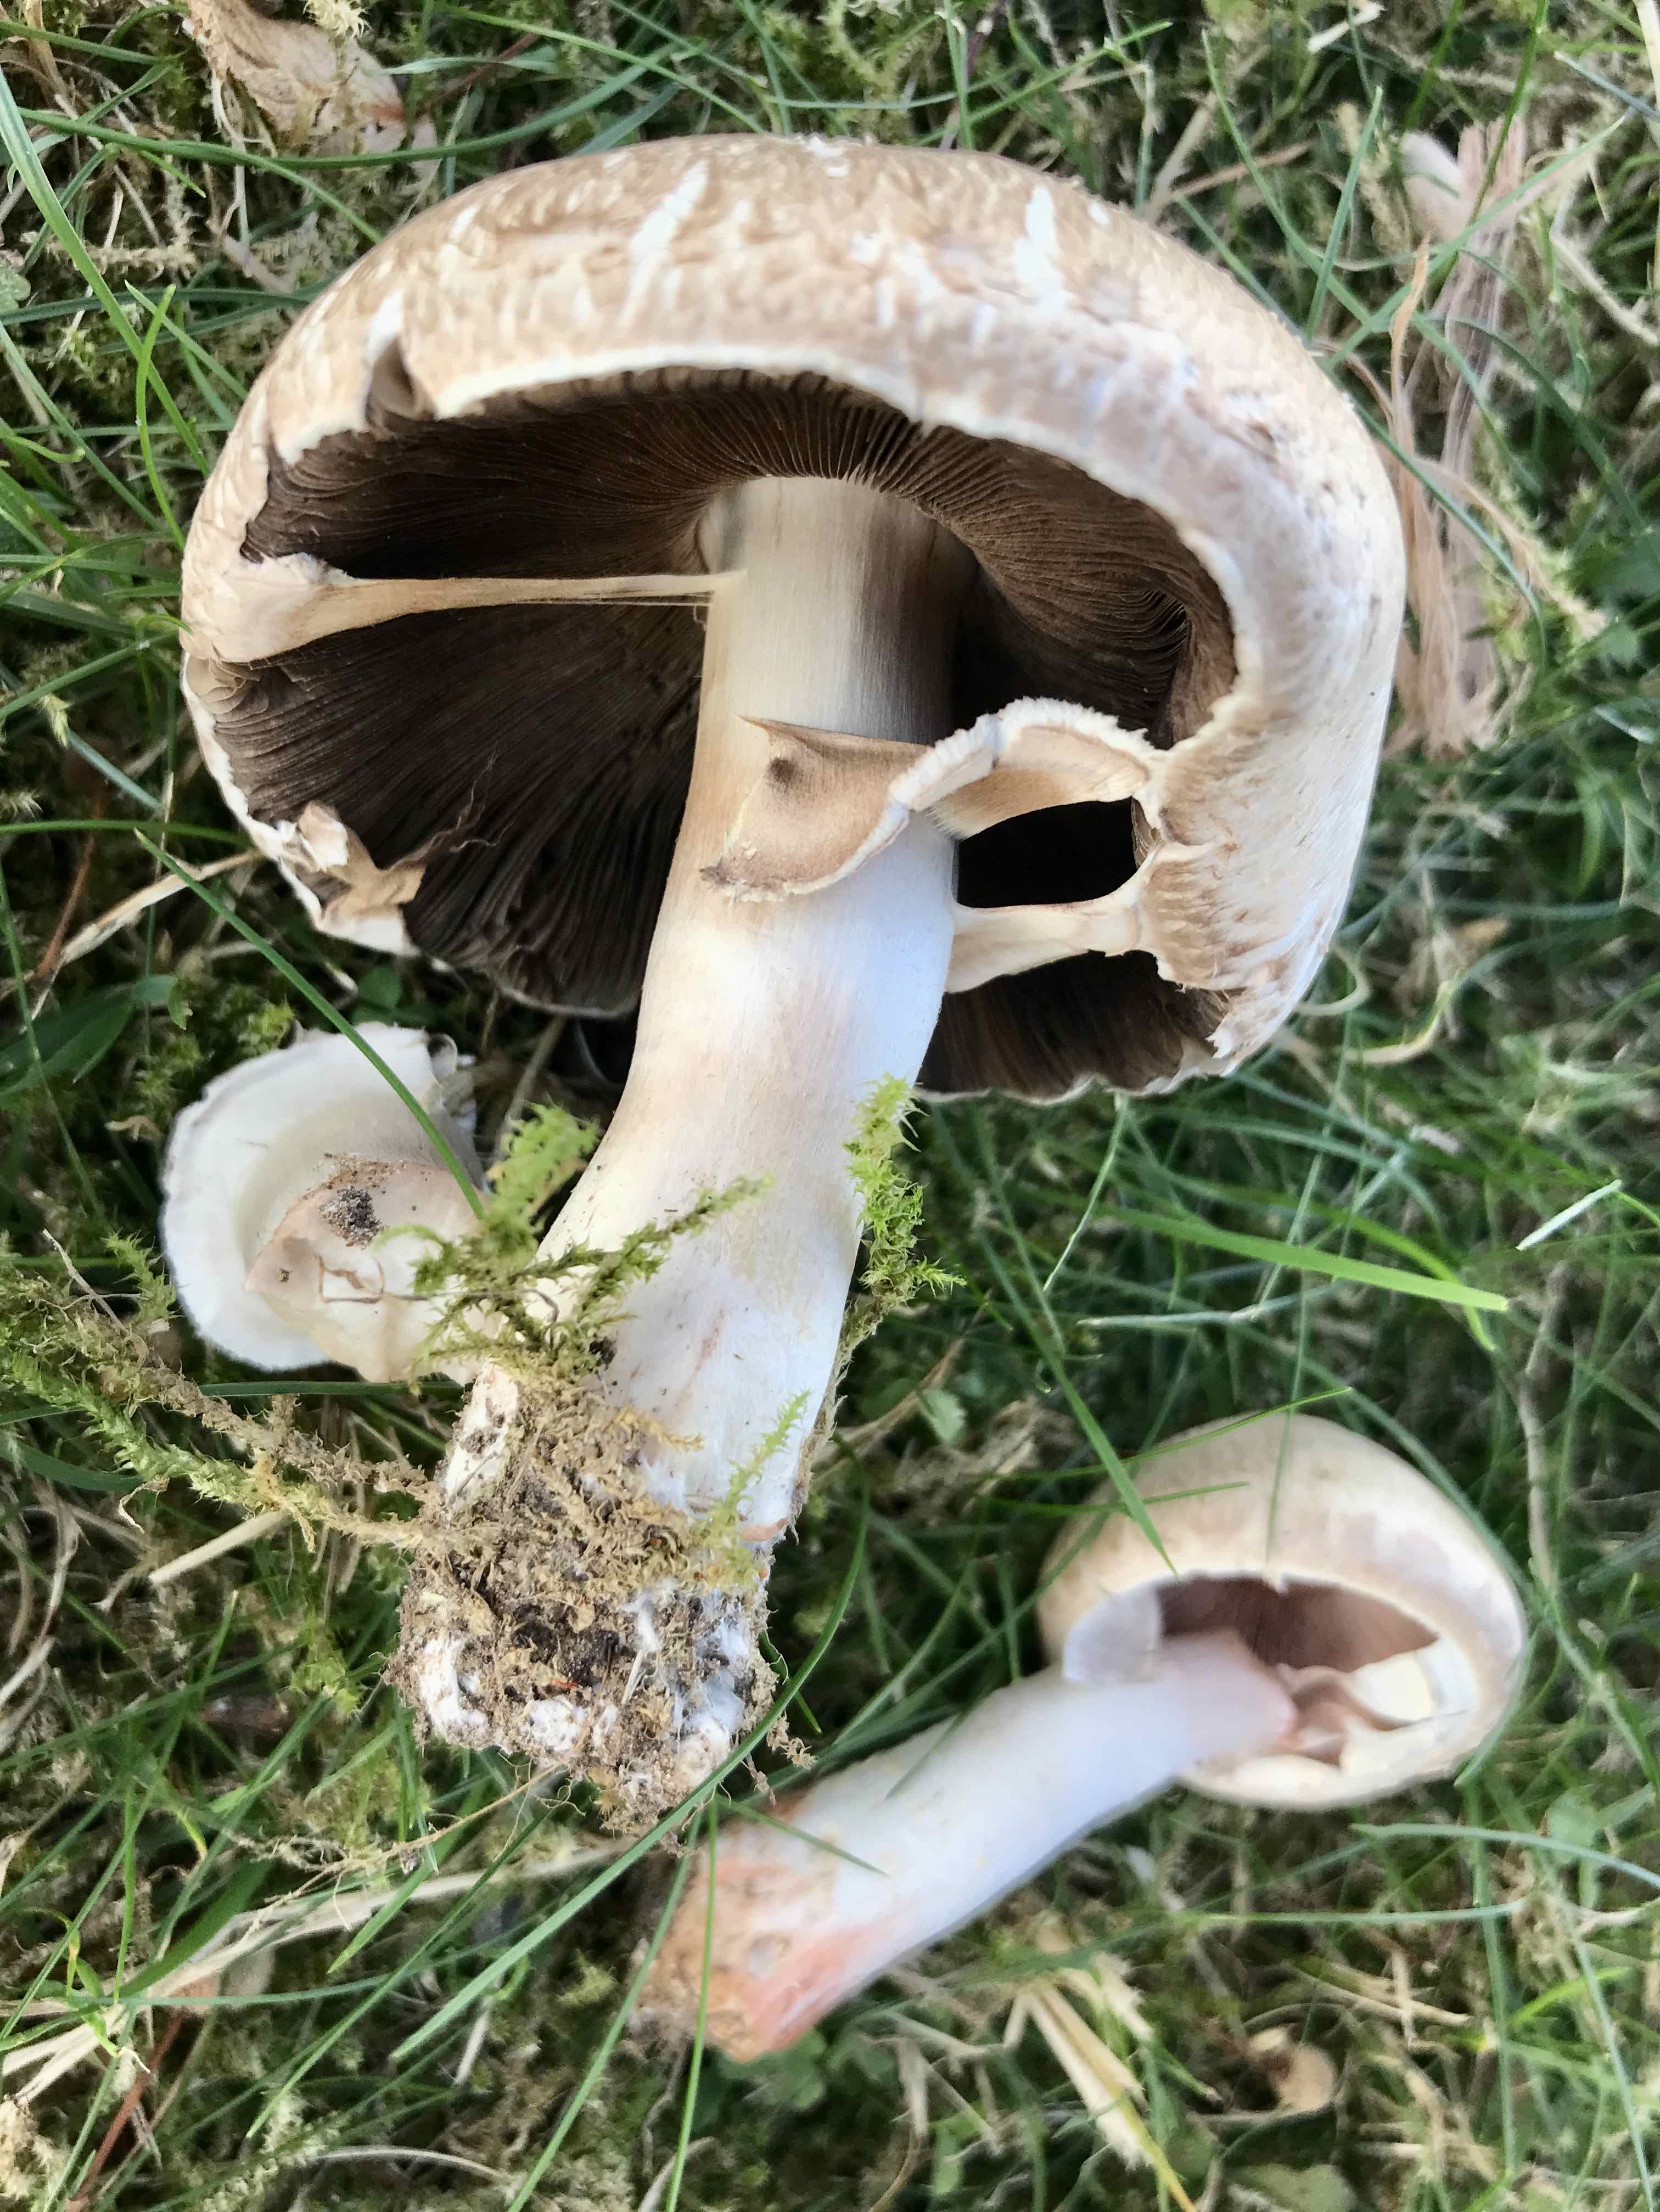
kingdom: Fungi
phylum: Basidiomycota
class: Agaricomycetes
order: Agaricales
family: Agaricaceae
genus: Agaricus
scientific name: Agaricus campestris
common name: mark-champignon
